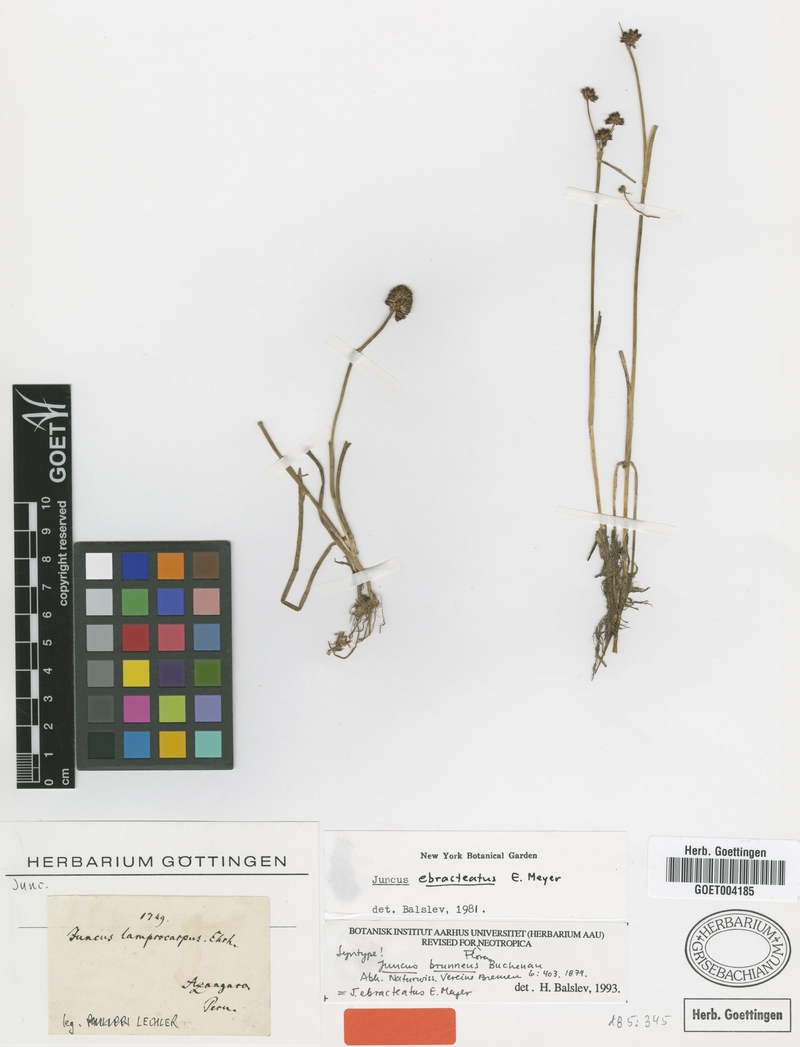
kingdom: Plantae
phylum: Tracheophyta
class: Liliopsida
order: Poales
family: Juncaceae
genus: Juncus
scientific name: Juncus ebracteatus
